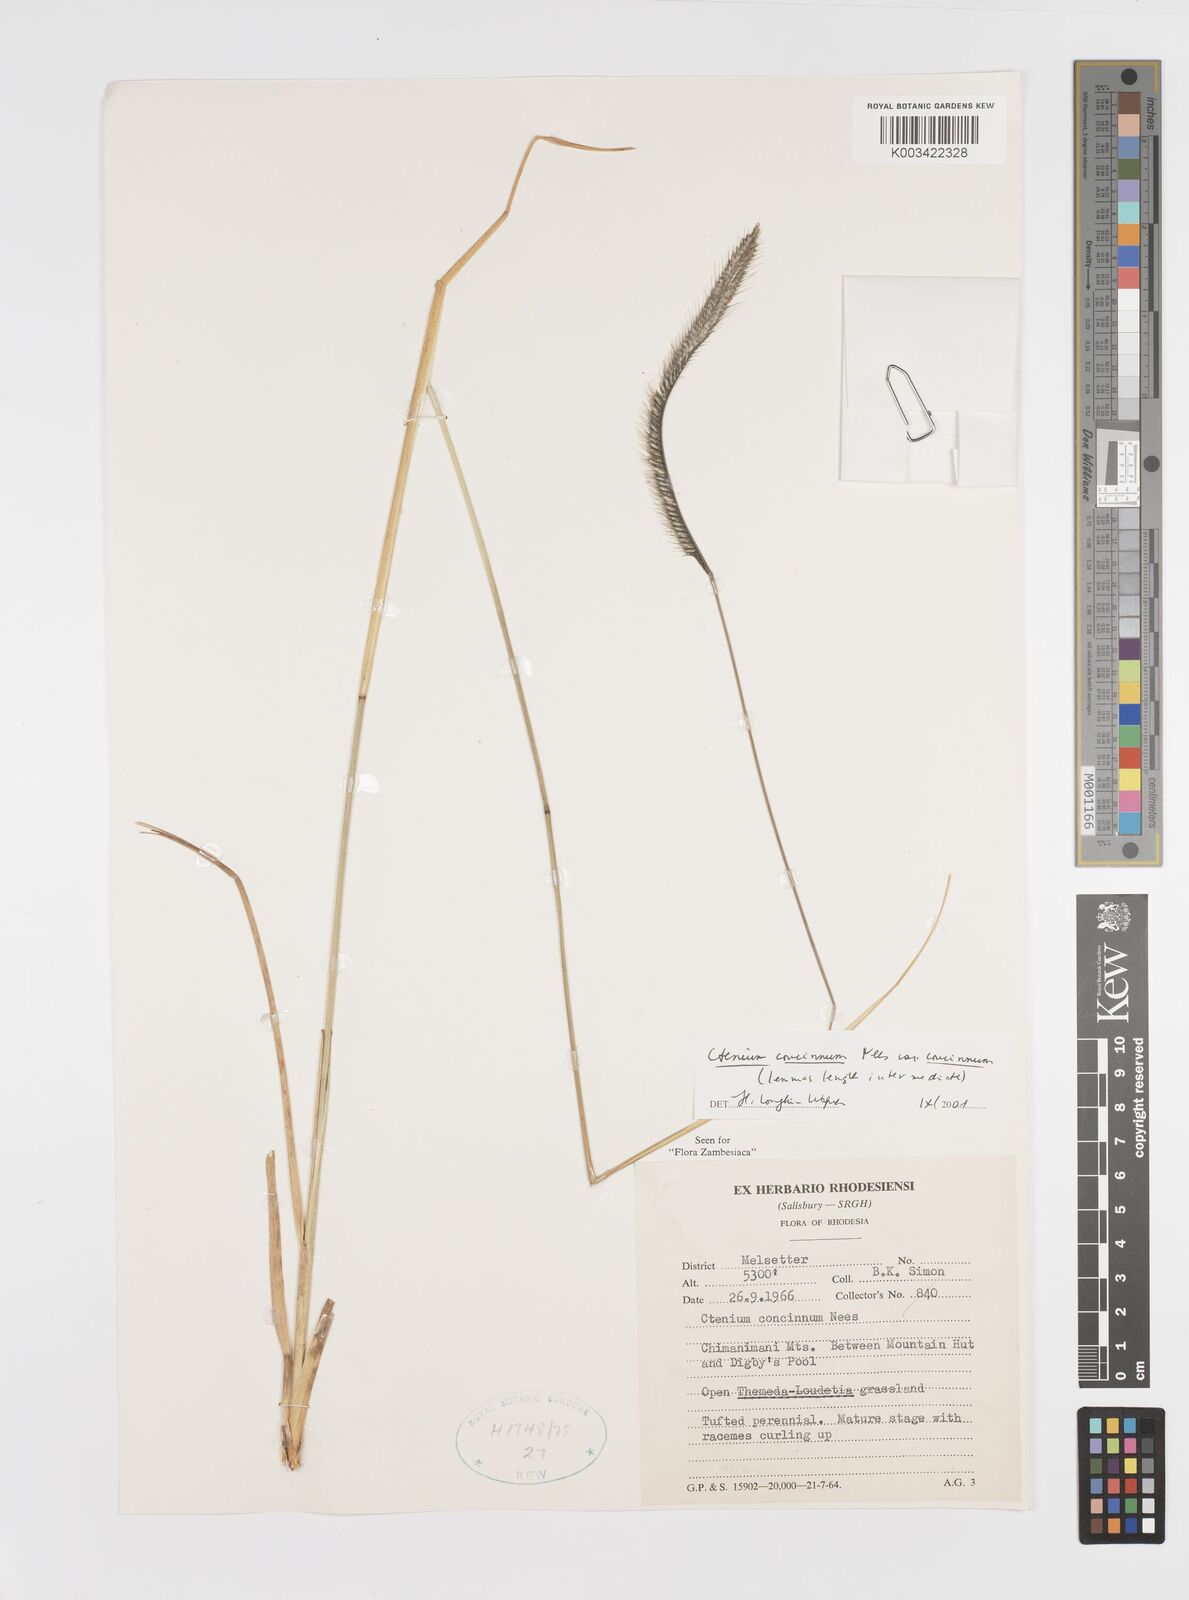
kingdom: Plantae
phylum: Tracheophyta
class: Liliopsida
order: Poales
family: Poaceae
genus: Ctenium
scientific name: Ctenium concinnum
